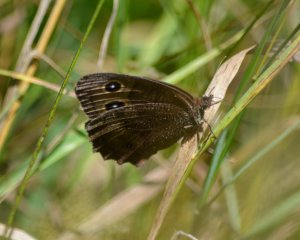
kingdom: Animalia
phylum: Arthropoda
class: Insecta
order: Lepidoptera
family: Nymphalidae
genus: Cercyonis
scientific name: Cercyonis pegala
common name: Common Wood-Nymph
